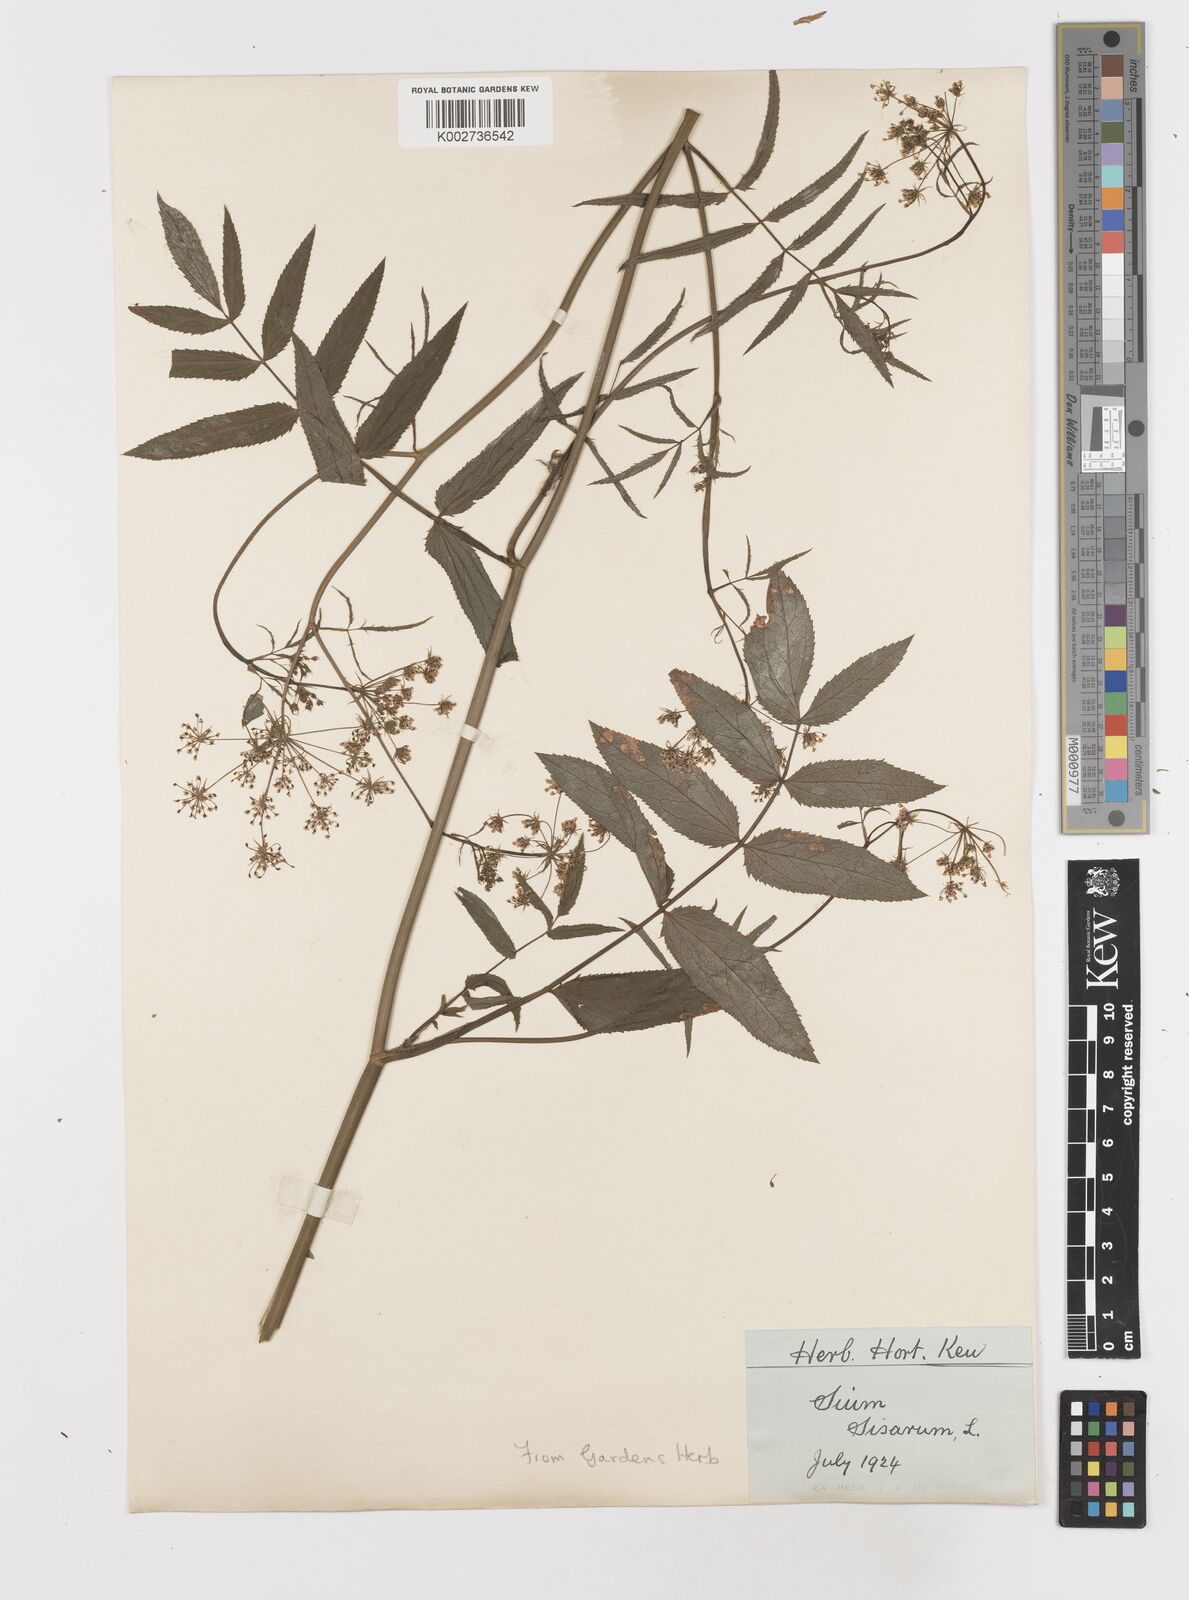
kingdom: Plantae
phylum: Tracheophyta
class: Magnoliopsida
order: Apiales
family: Apiaceae
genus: Sium
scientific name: Sium sisarum
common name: Skirret
